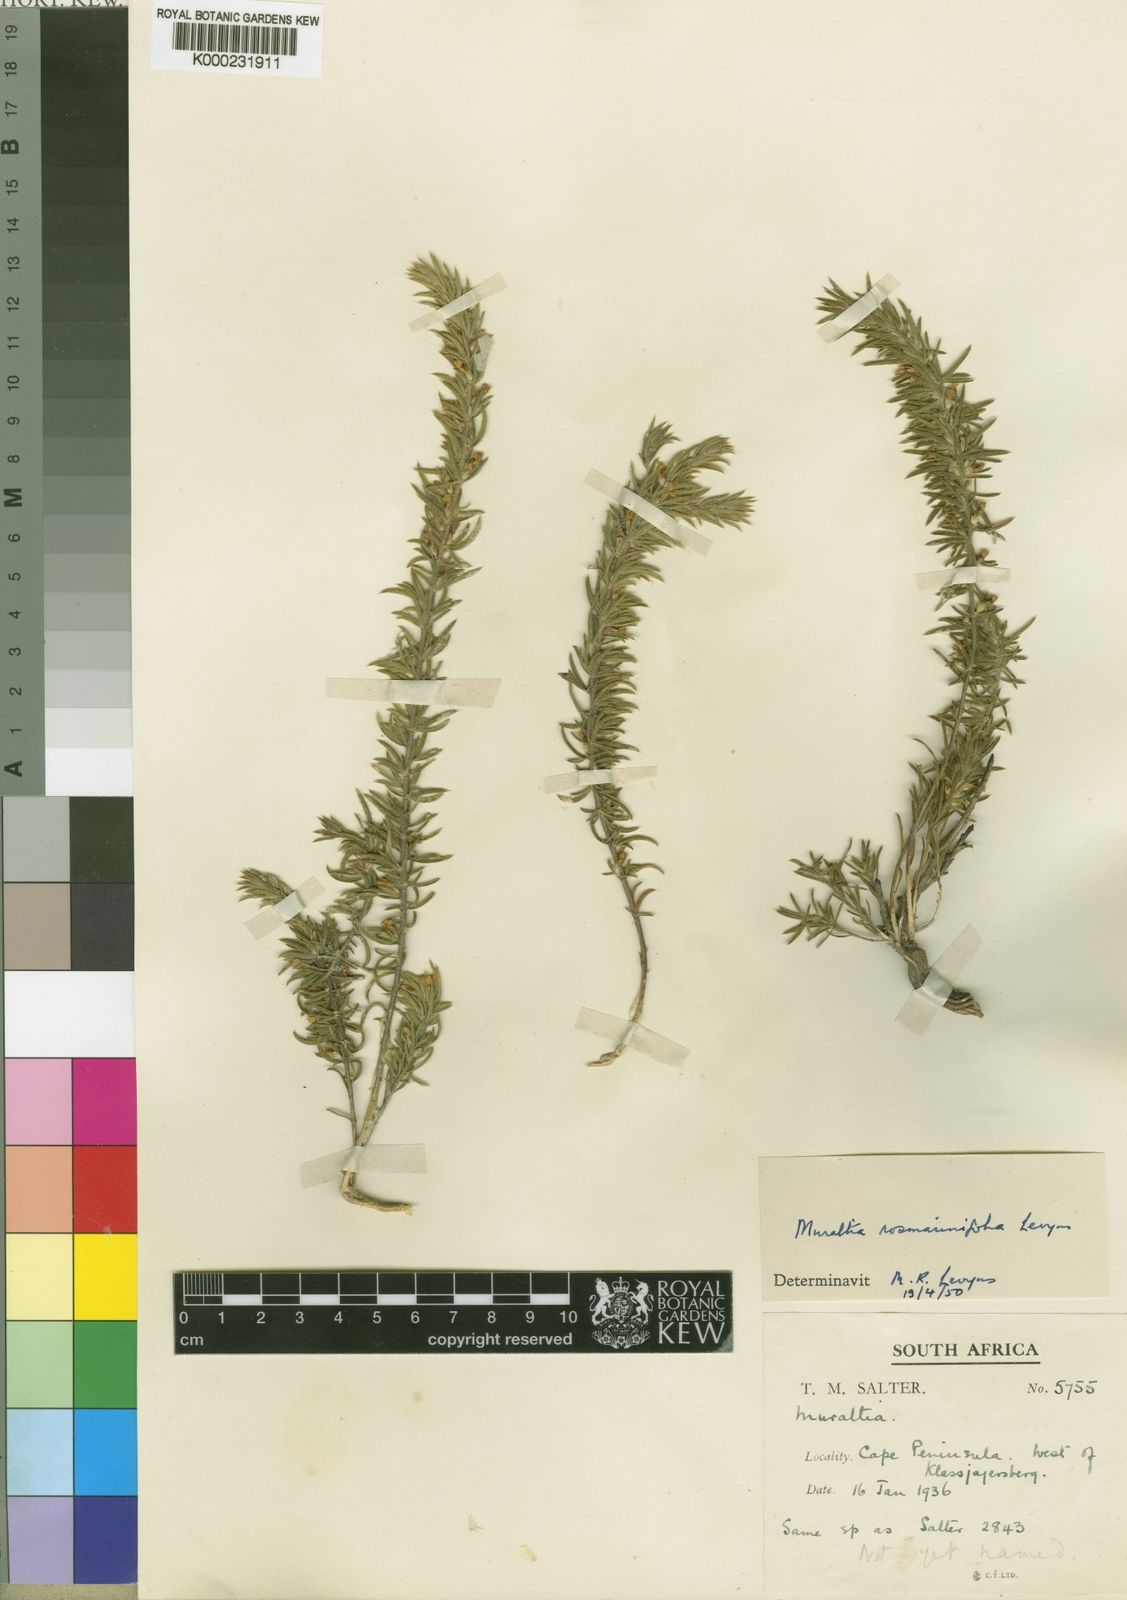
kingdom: Plantae
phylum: Tracheophyta
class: Magnoliopsida
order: Fabales
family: Polygalaceae
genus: Muraltia
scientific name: Muraltia rosmarinifolia
